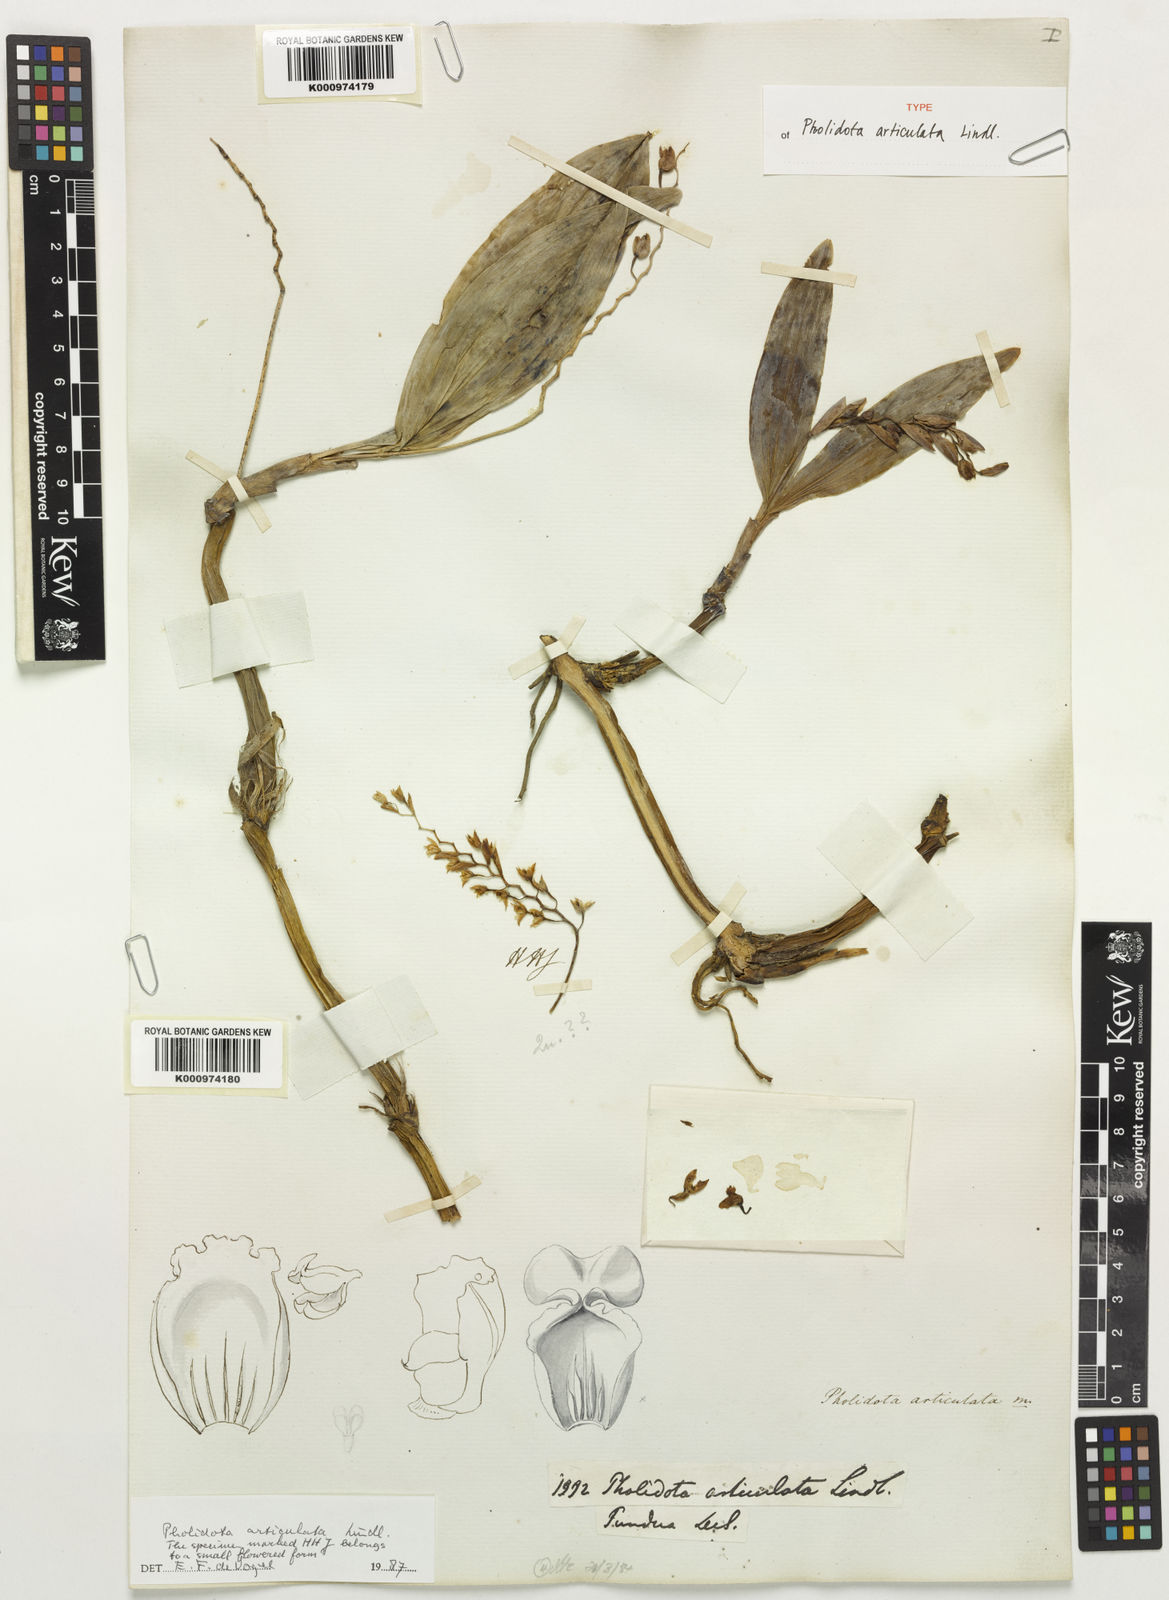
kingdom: Plantae
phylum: Tracheophyta
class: Liliopsida
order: Asparagales
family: Orchidaceae
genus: Coelogyne
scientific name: Coelogyne articulata
